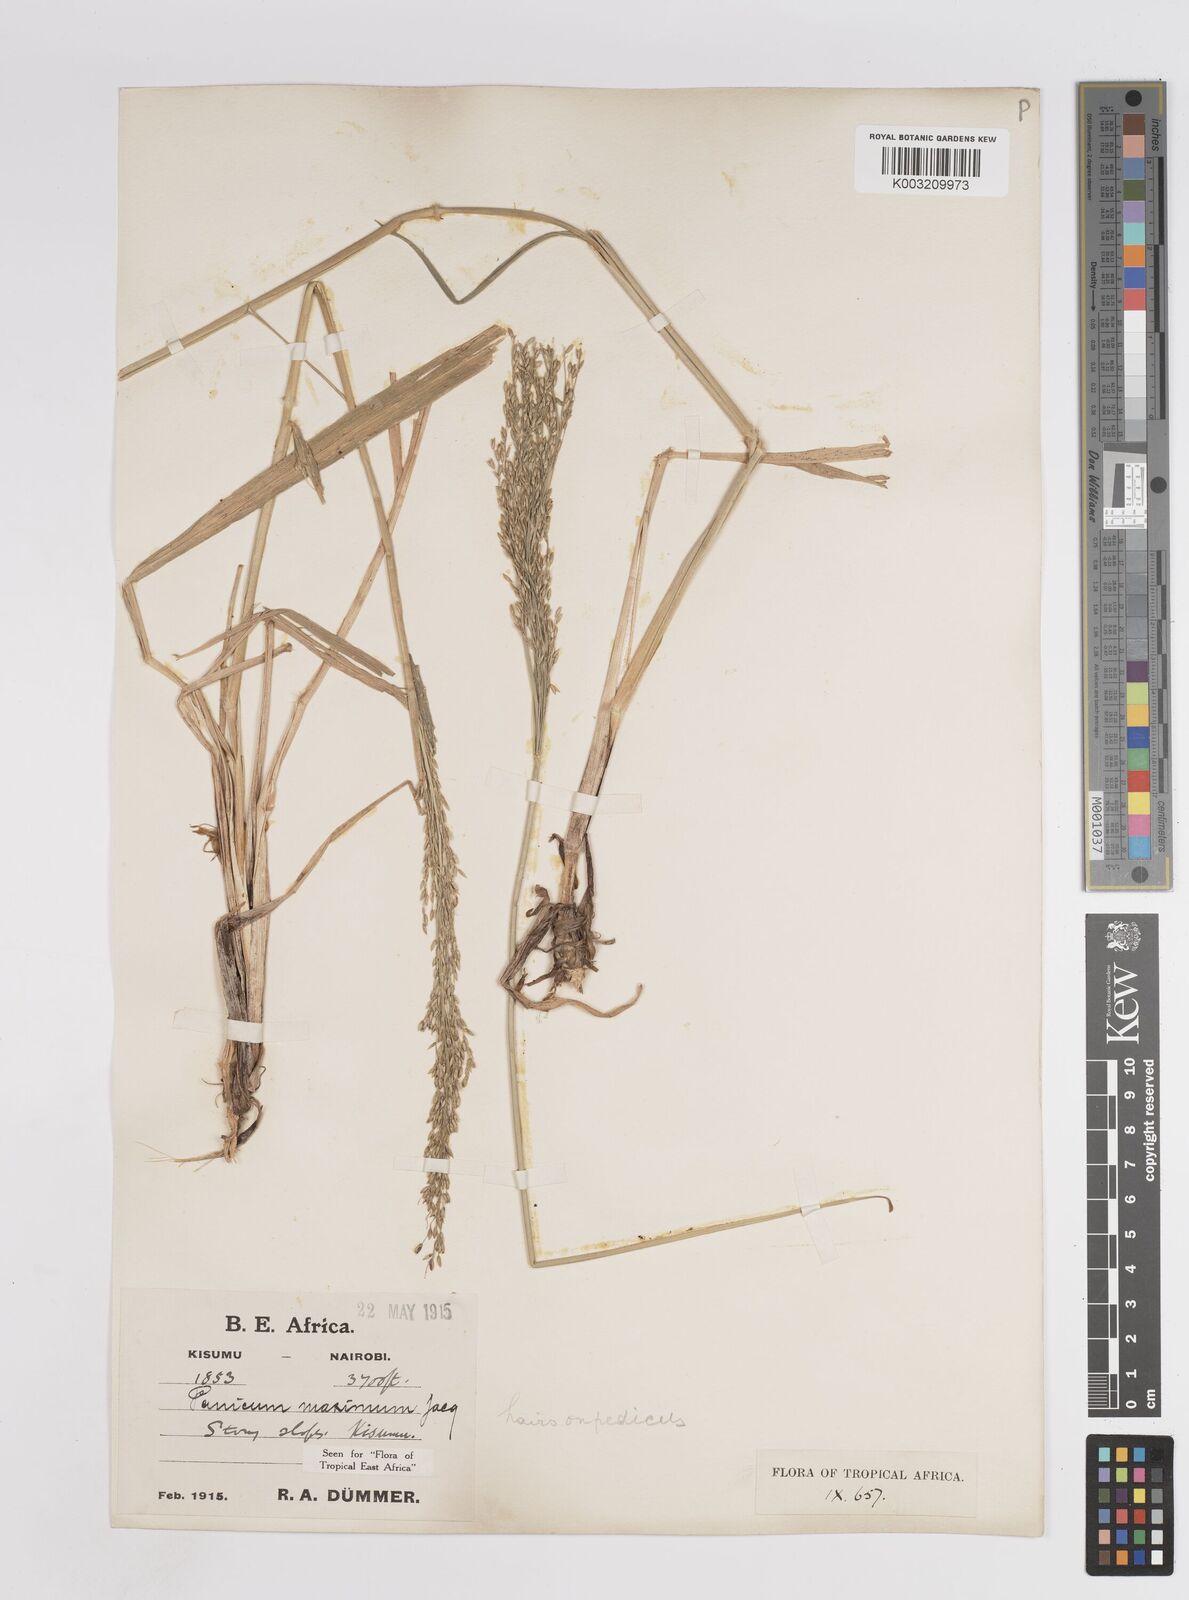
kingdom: Plantae
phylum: Tracheophyta
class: Liliopsida
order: Poales
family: Poaceae
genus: Megathyrsus
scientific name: Megathyrsus maximus
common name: Guineagrass
